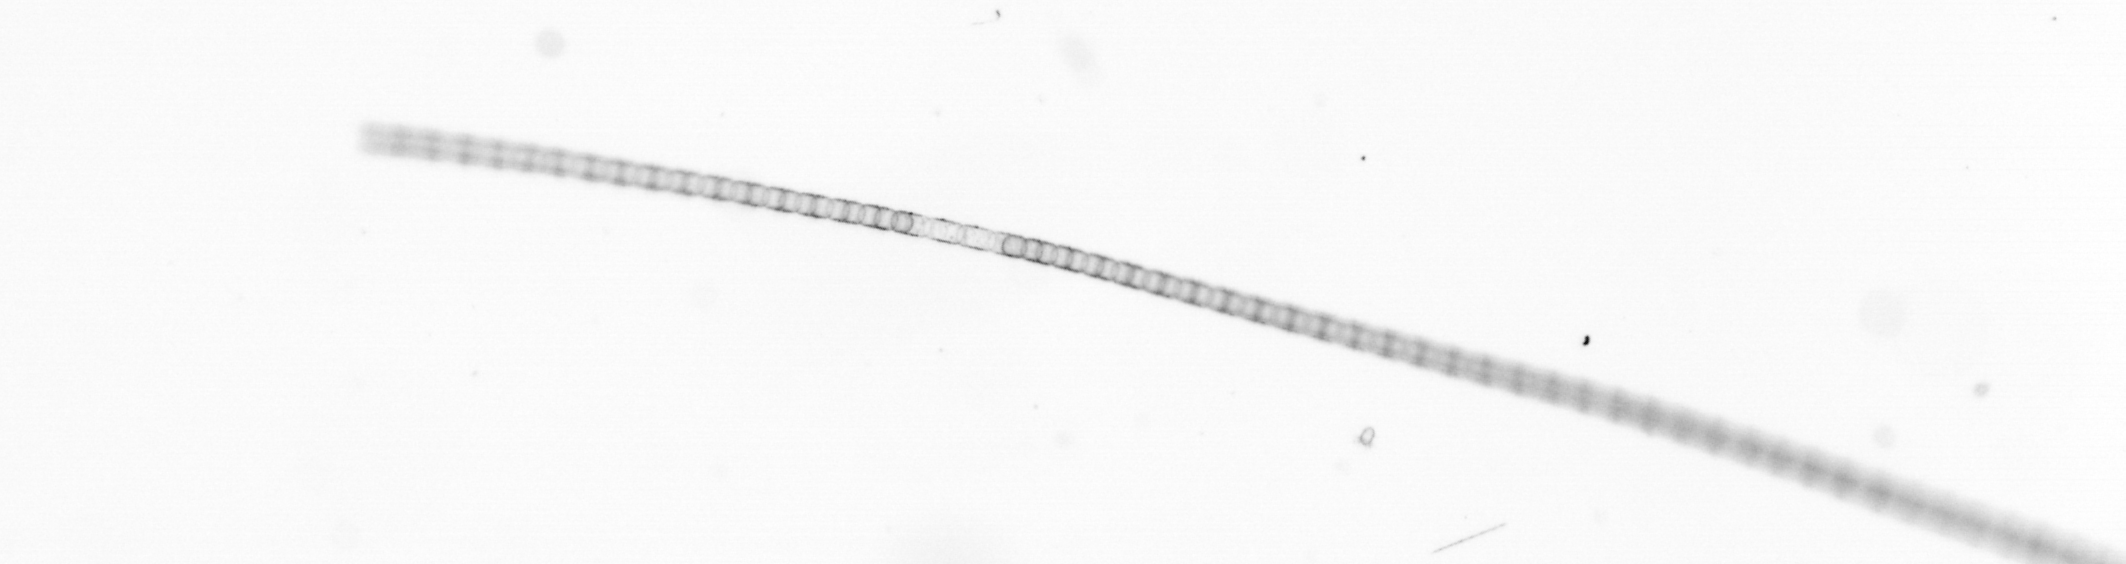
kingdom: Chromista
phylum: Ochrophyta
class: Bacillariophyceae
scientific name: Bacillariophyceae
